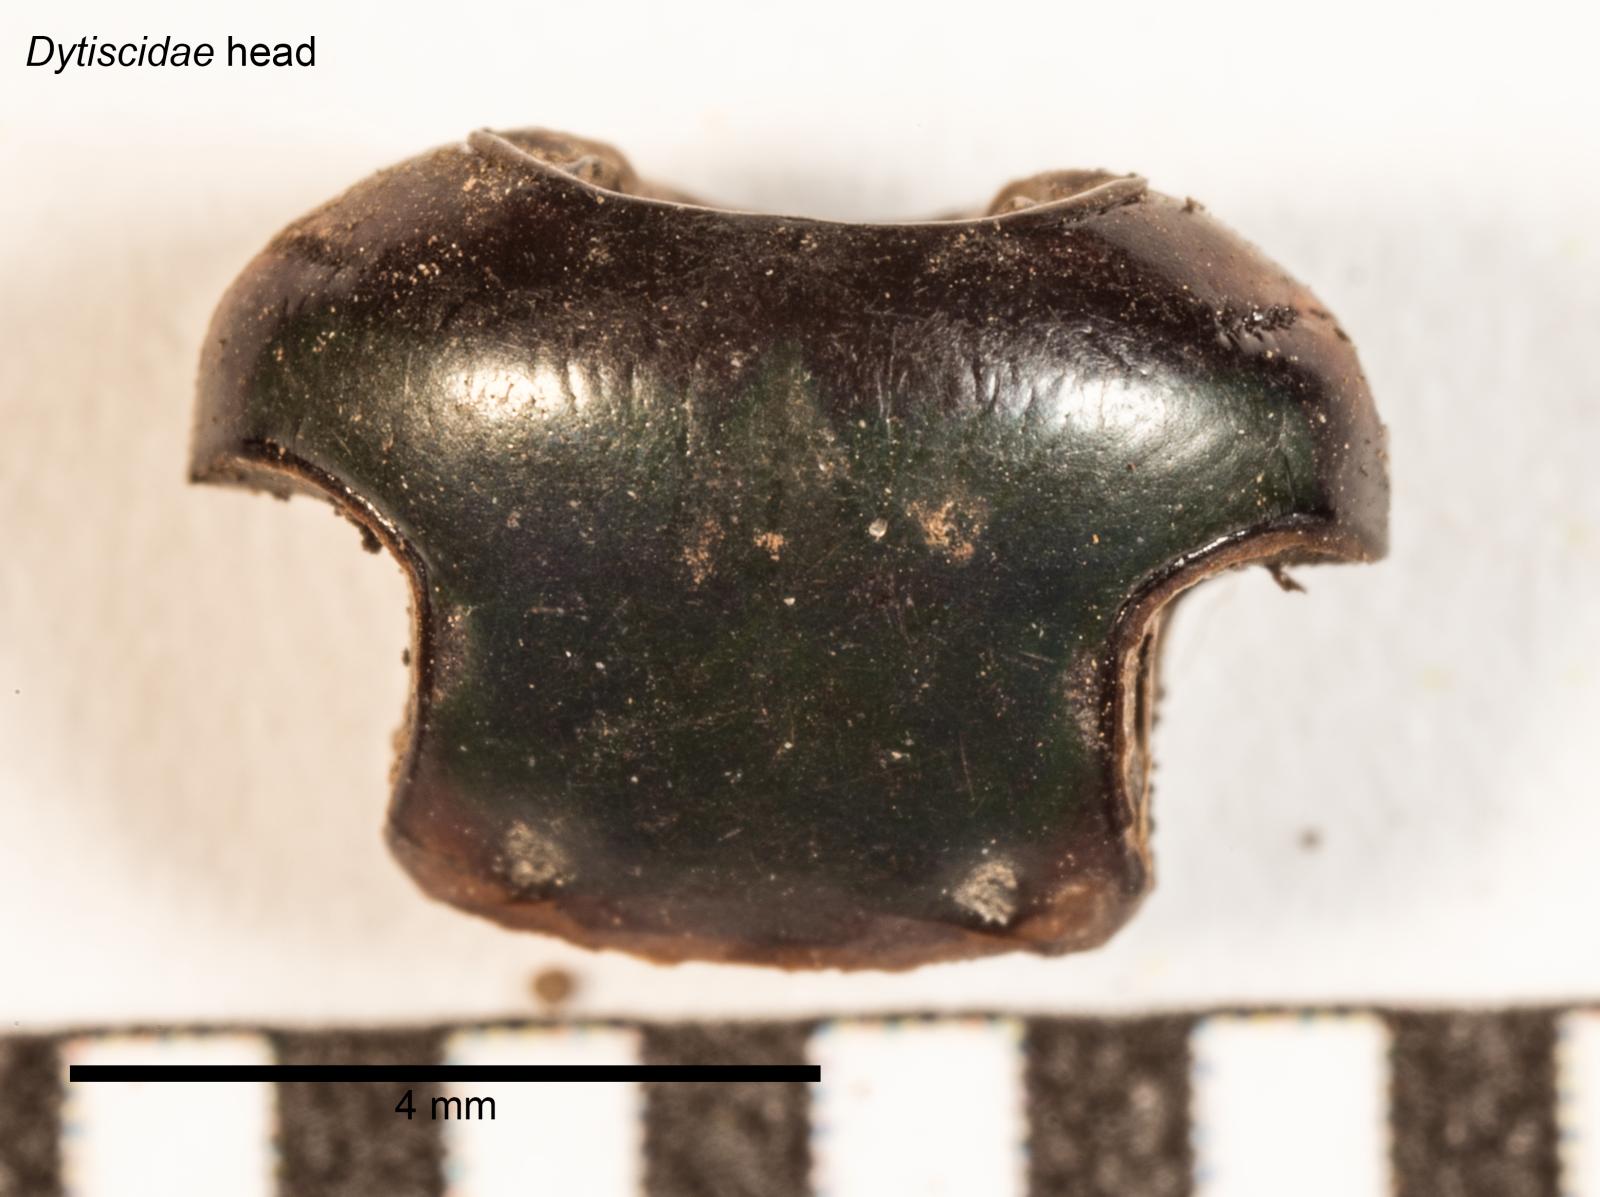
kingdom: Animalia
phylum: Arthropoda
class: Insecta
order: Coleoptera
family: Dytiscidae
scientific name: Dytiscidae
